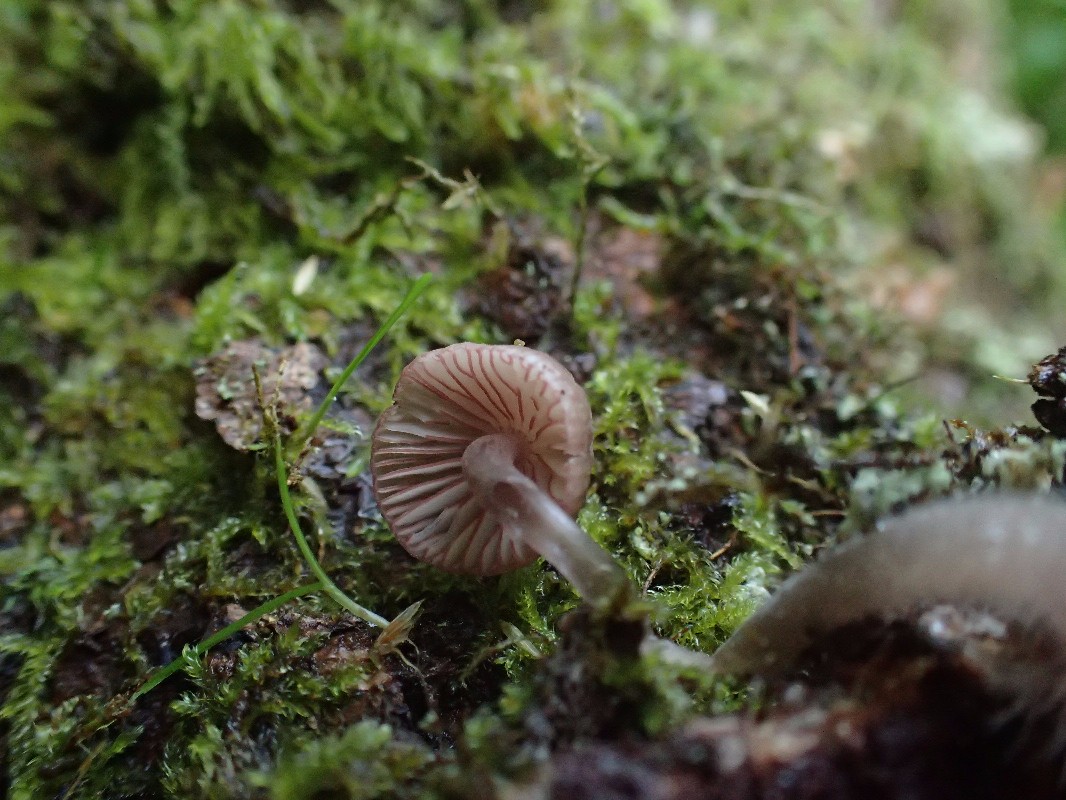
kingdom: Fungi
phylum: Basidiomycota
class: Agaricomycetes
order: Agaricales
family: Mycenaceae
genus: Mycena
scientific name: Mycena rubromarginata
